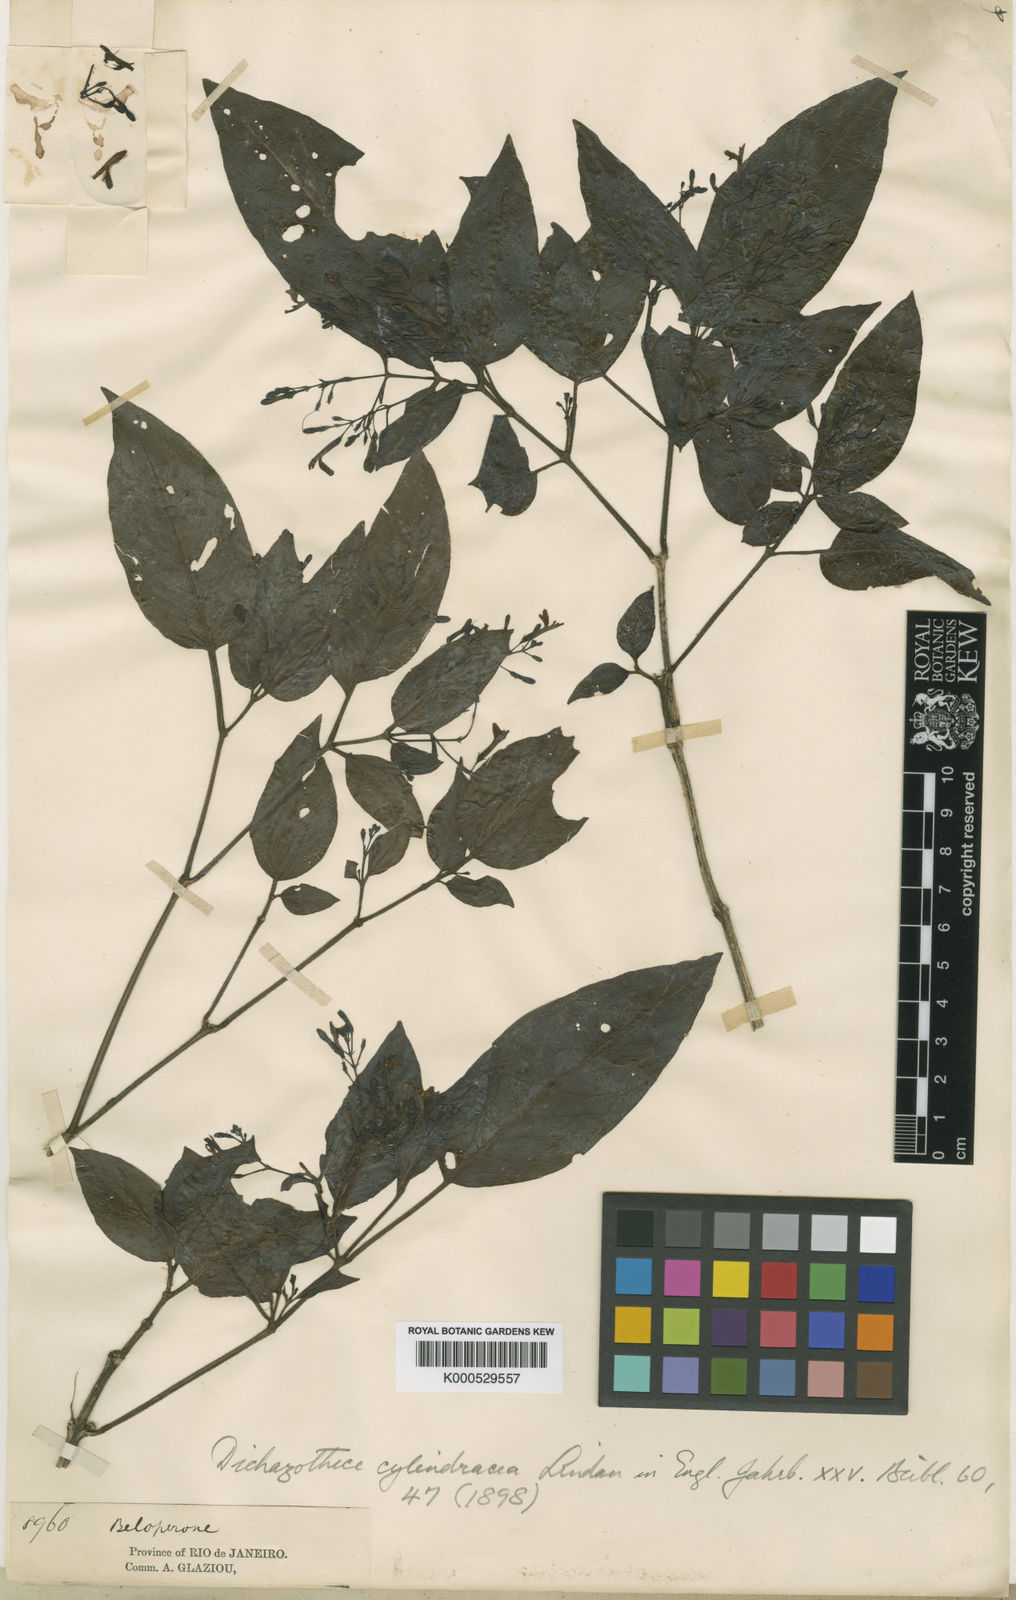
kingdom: Plantae
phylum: Tracheophyta
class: Magnoliopsida
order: Lamiales
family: Acanthaceae
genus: Dichazothece
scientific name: Dichazothece cylindracea
